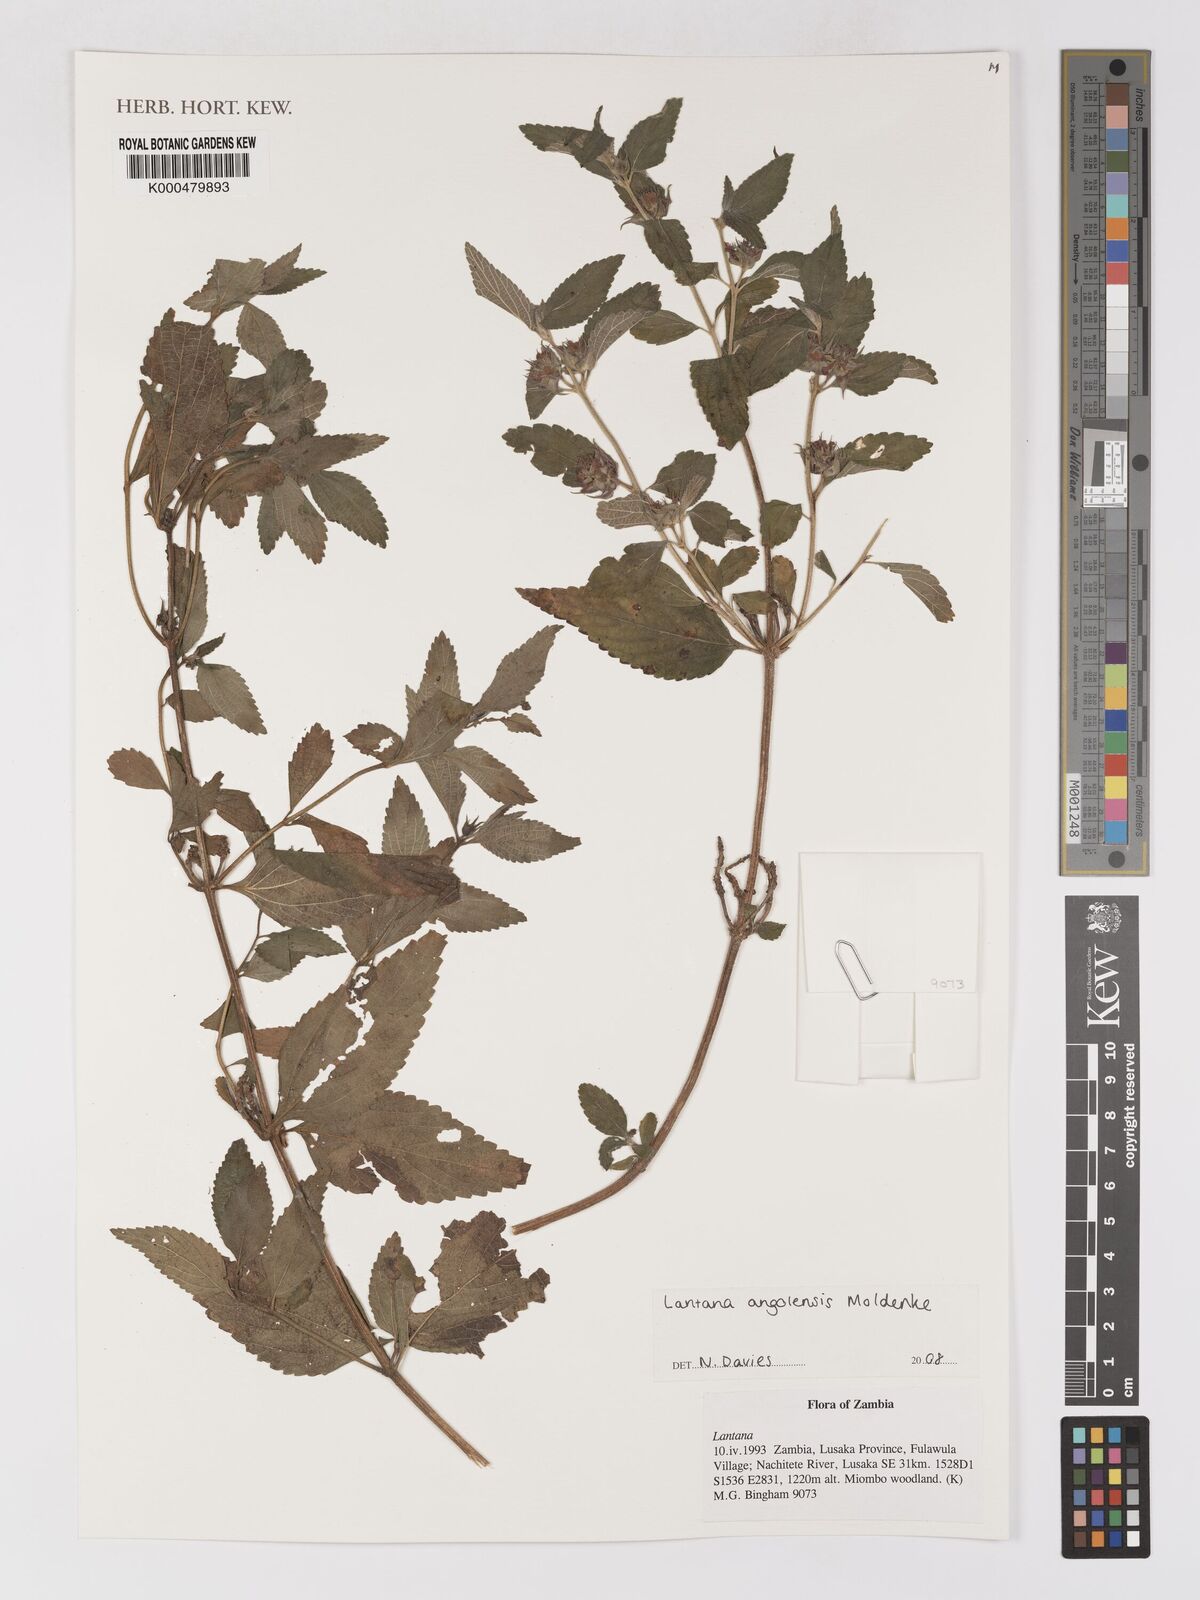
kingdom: Plantae
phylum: Tracheophyta
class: Magnoliopsida
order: Lamiales
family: Verbenaceae
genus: Lantana
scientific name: Lantana angolensis
